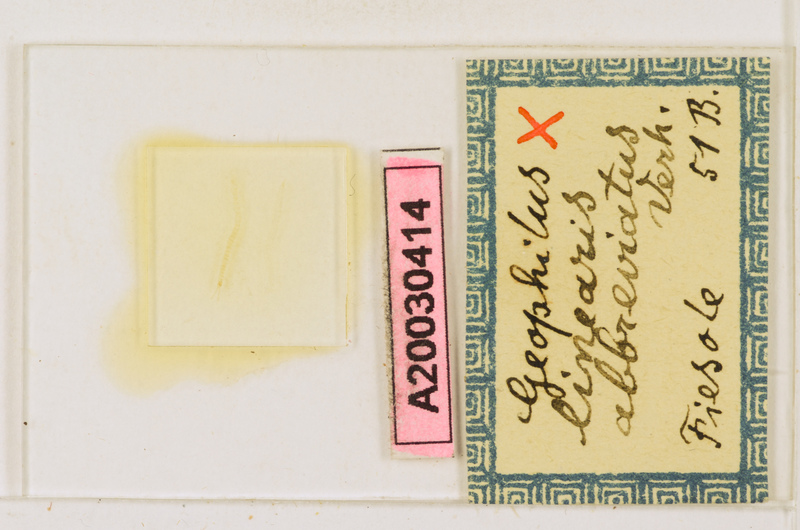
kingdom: Animalia
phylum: Arthropoda
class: Chilopoda
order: Geophilomorpha
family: Geophilidae
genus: Stenotaenia
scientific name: Stenotaenia sorrentina
